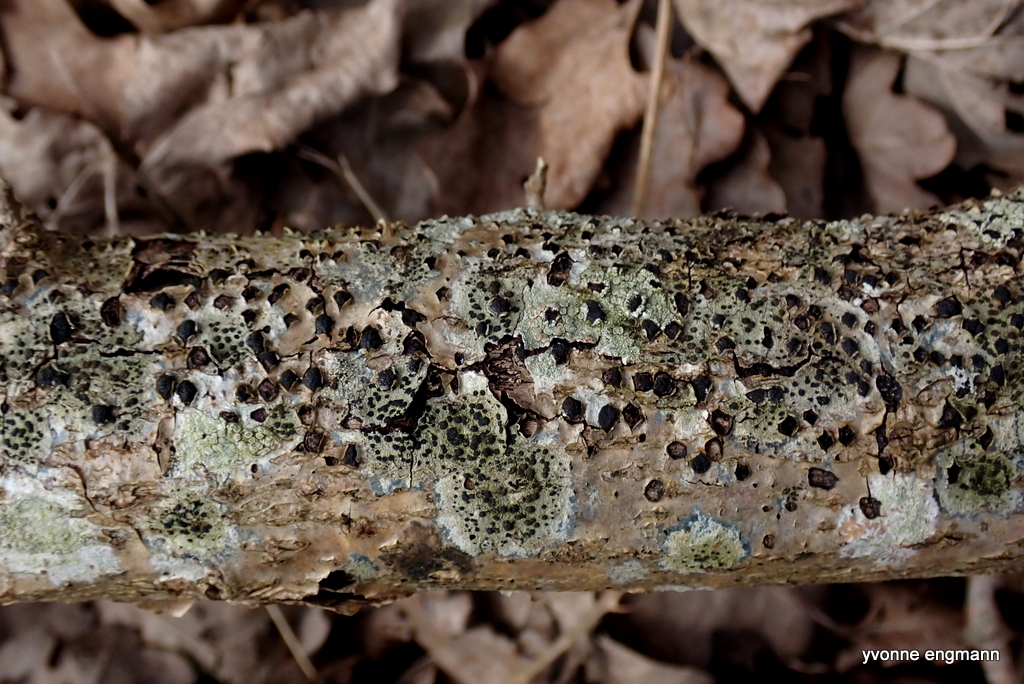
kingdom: Fungi
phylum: Ascomycota
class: Sordariomycetes
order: Xylariales
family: Diatrypaceae
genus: Diatrypella
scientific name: Diatrypella quercina
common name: ege-kulskorpe
